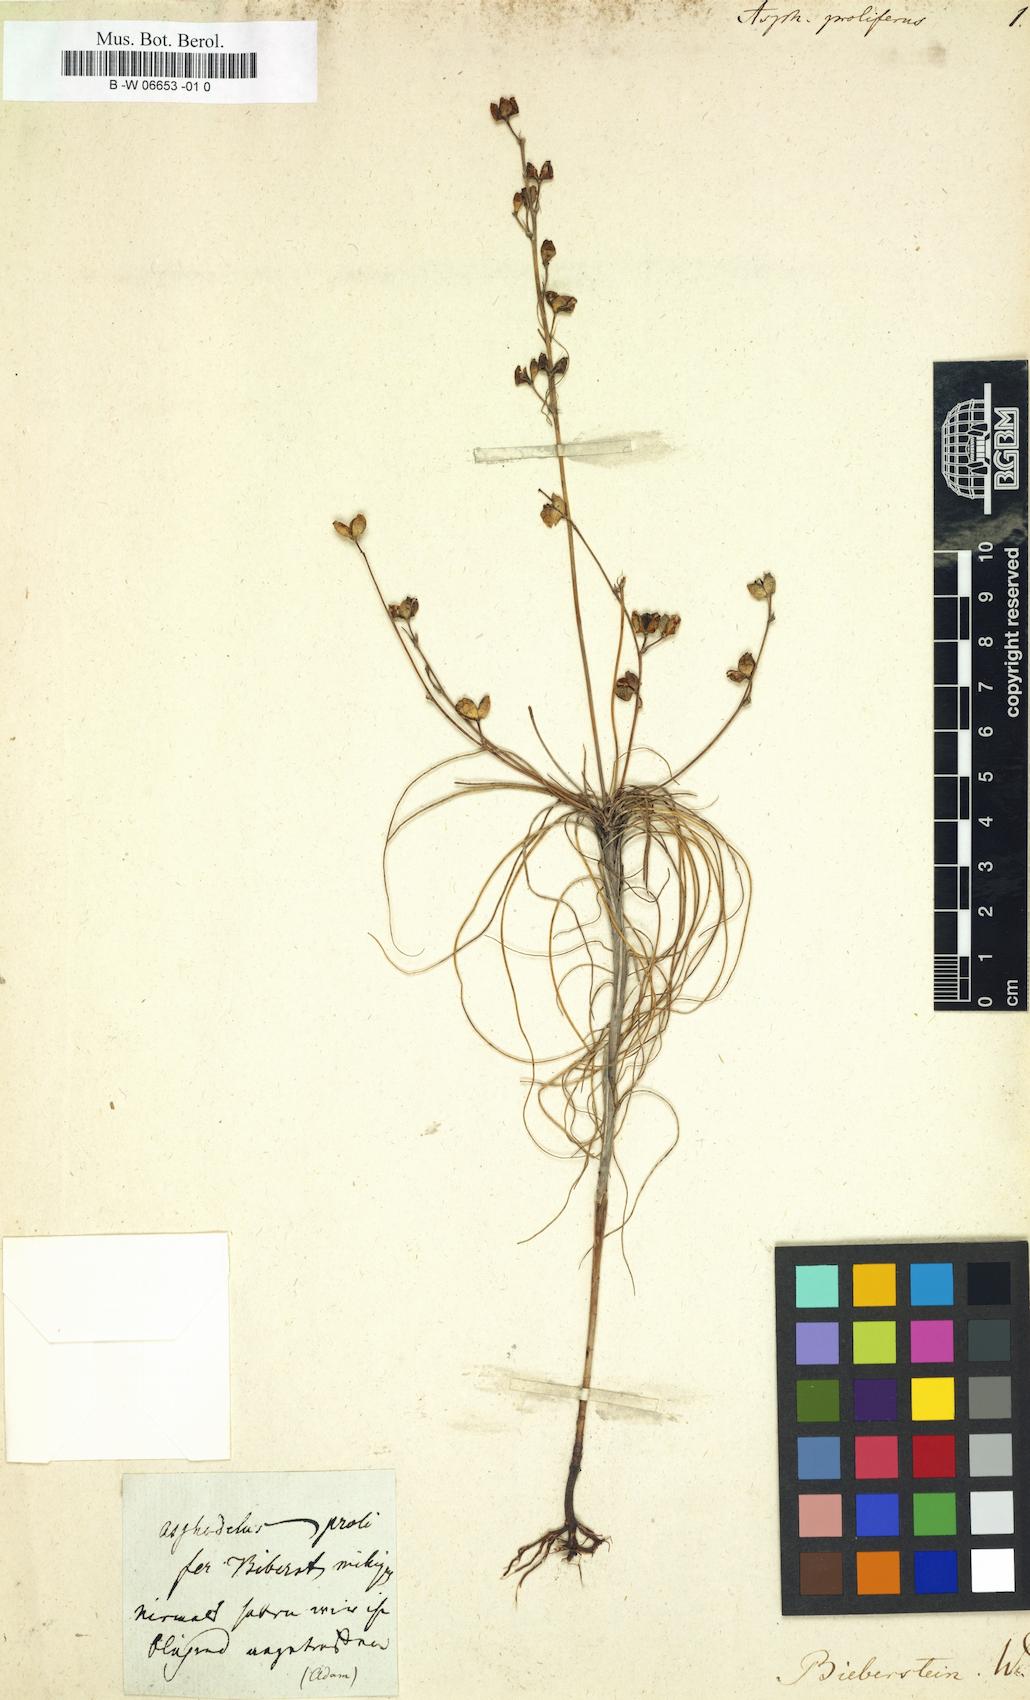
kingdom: Plantae
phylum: Tracheophyta
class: Liliopsida
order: Asparagales
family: Asphodelaceae
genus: Asphodelus
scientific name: Asphodelus proliferus
